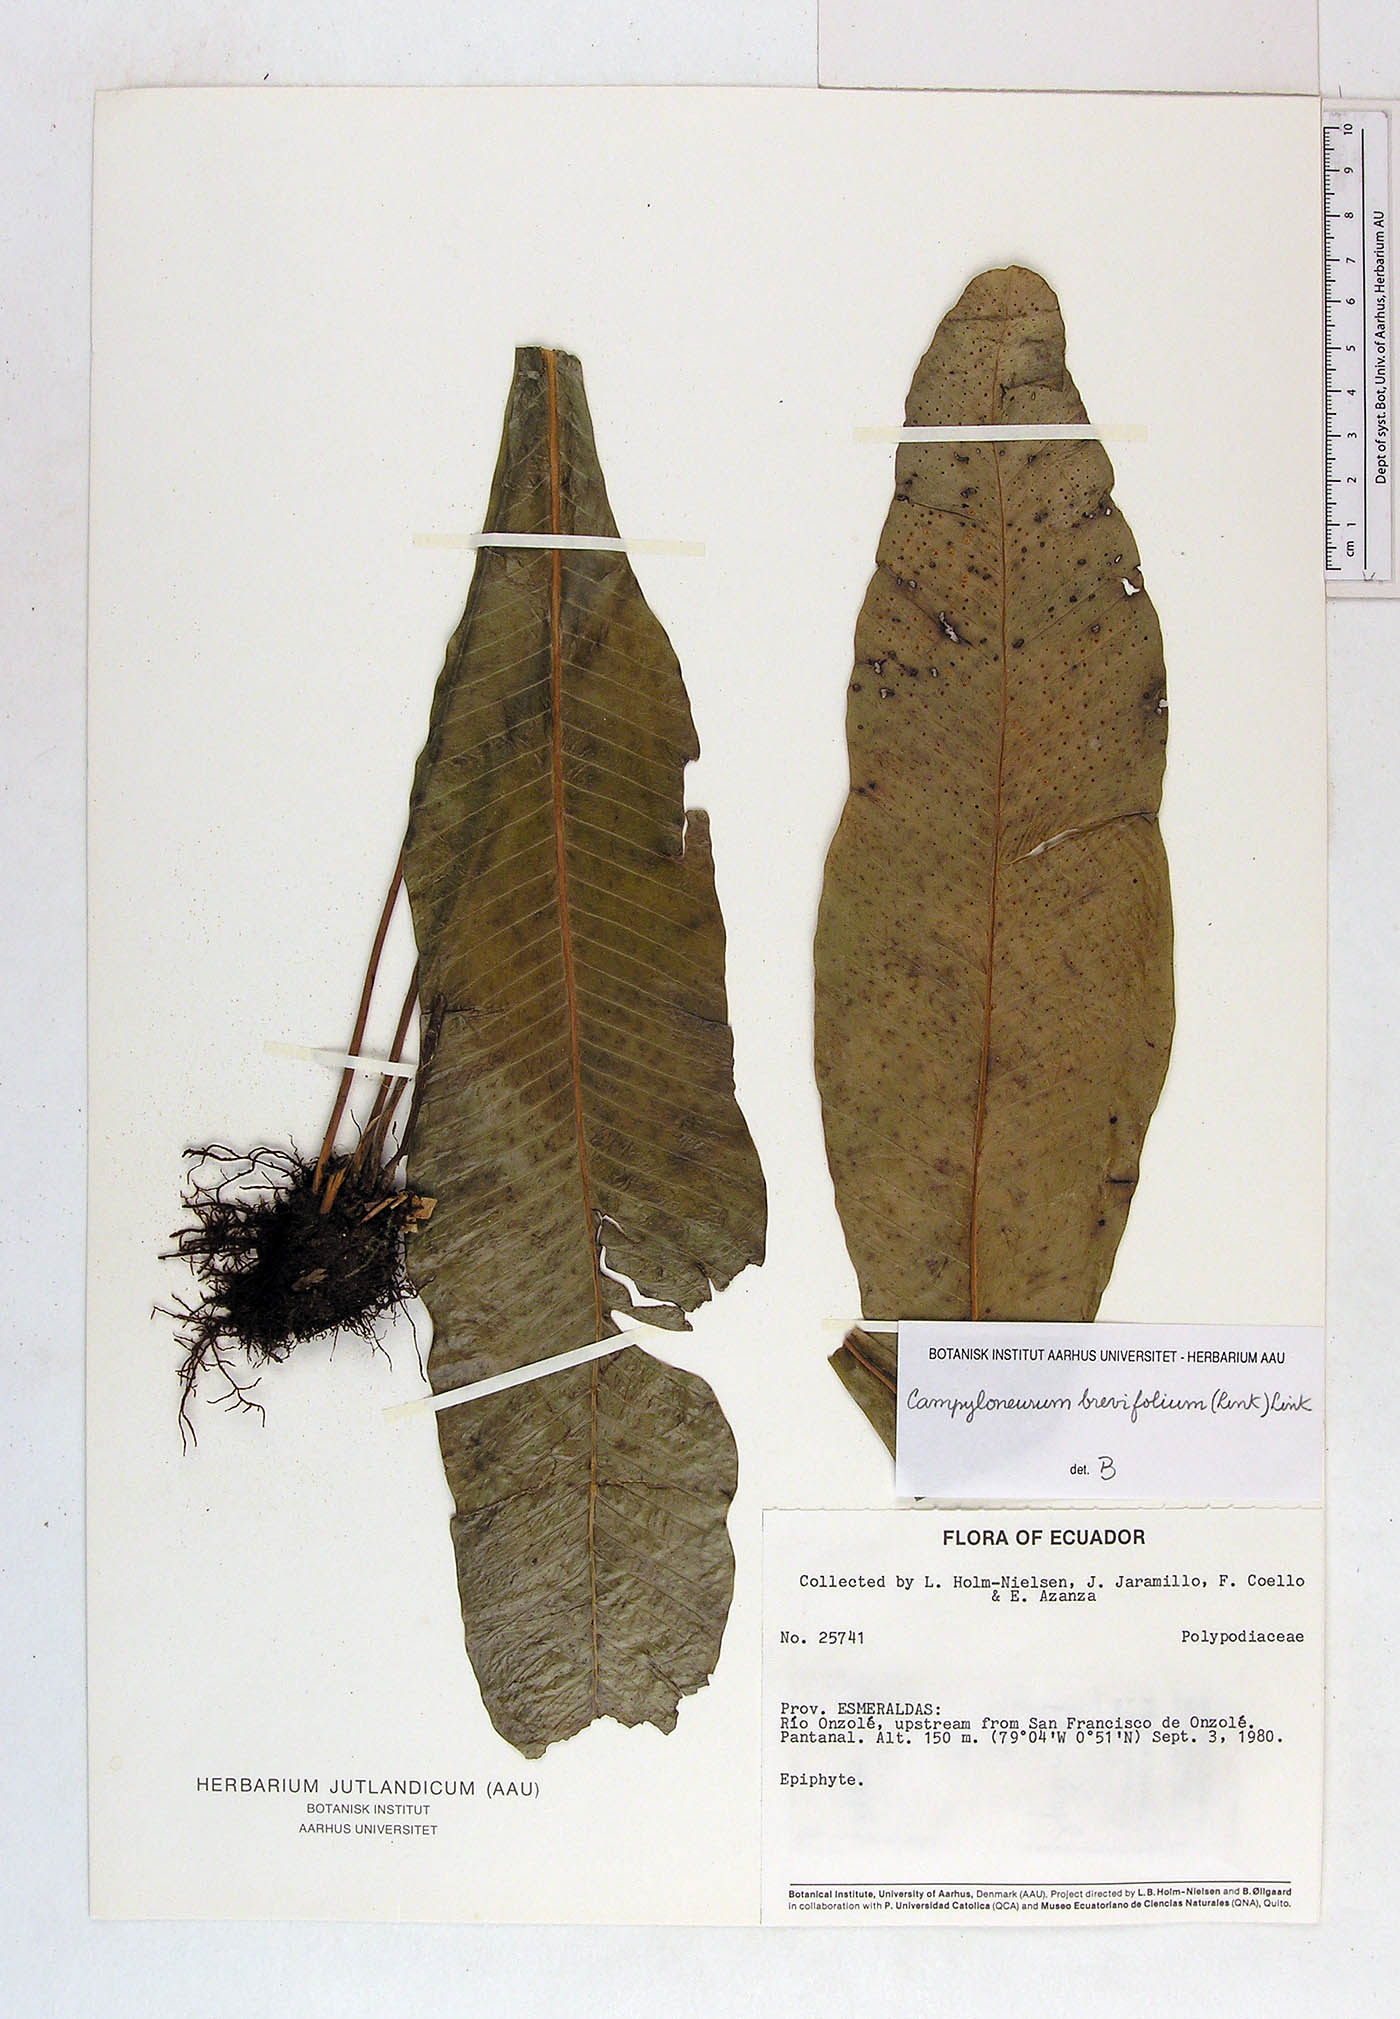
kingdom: Plantae
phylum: Tracheophyta
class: Polypodiopsida
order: Polypodiales
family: Polypodiaceae
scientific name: Polypodiaceae
